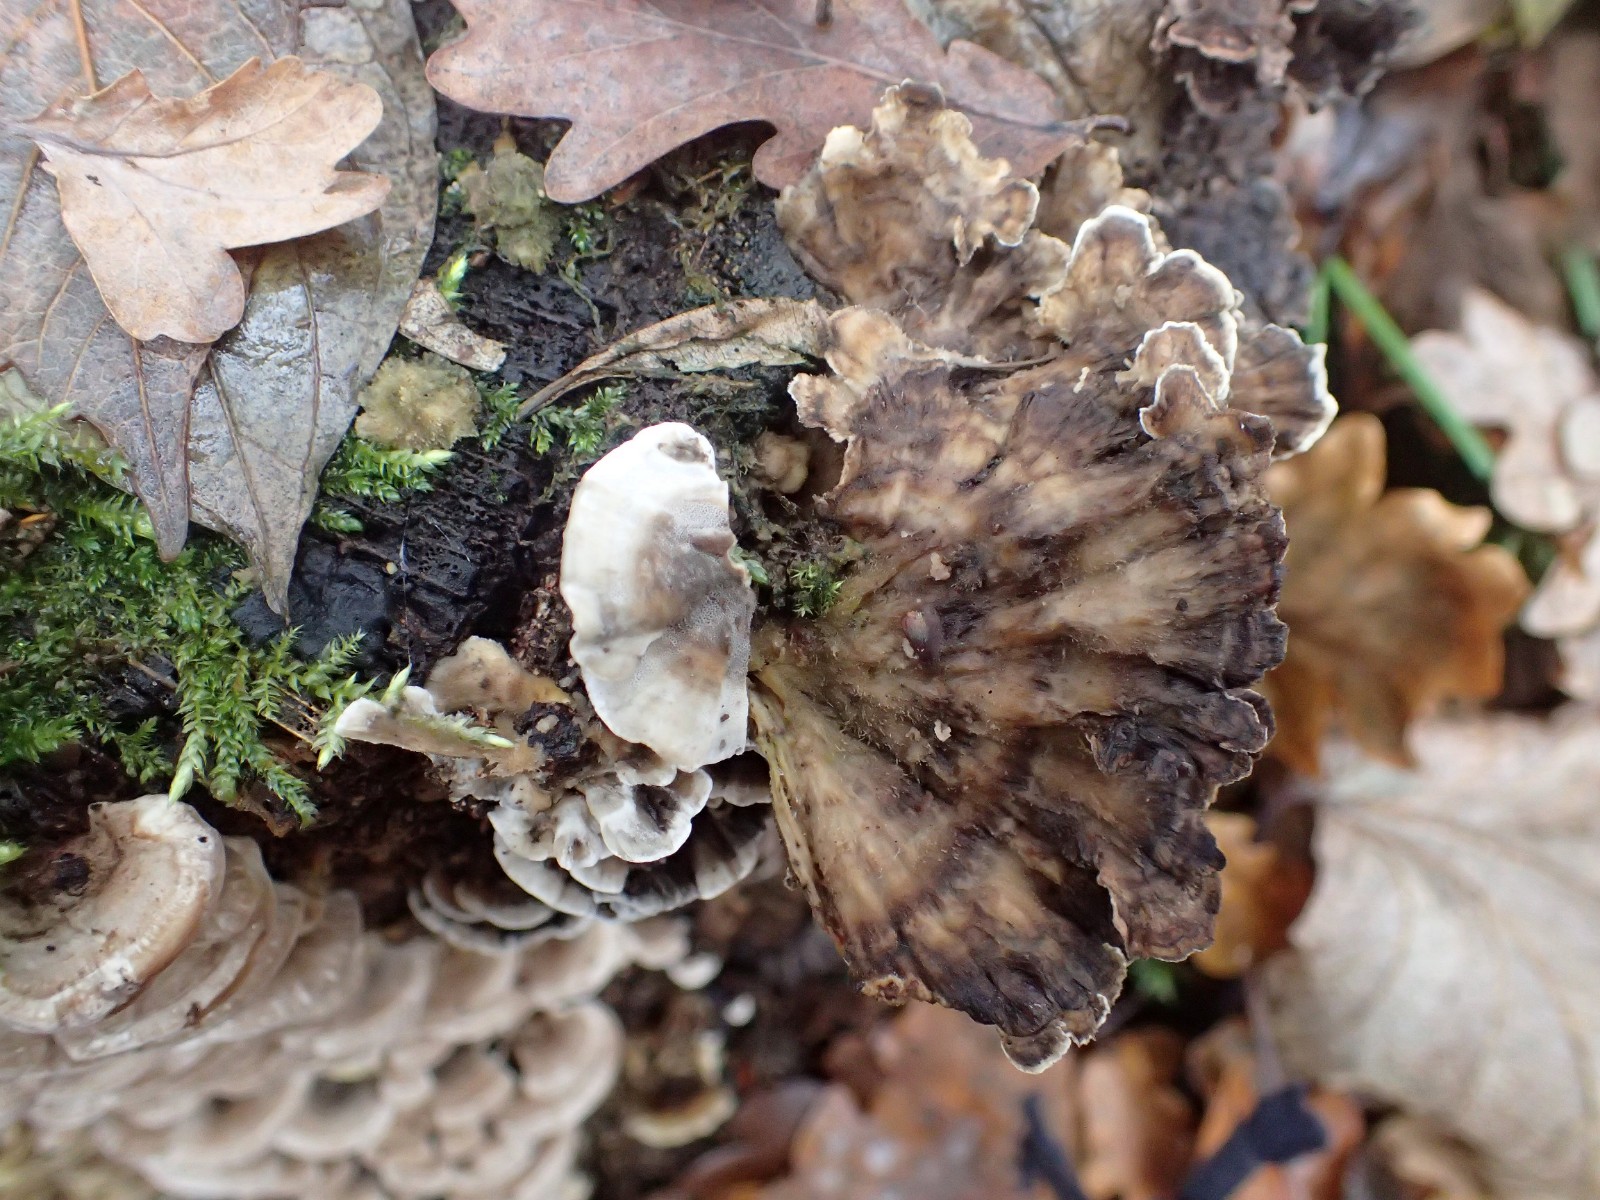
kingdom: Fungi
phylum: Basidiomycota
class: Agaricomycetes
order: Polyporales
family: Phanerochaetaceae
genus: Bjerkandera
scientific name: Bjerkandera adusta
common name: sveden sodporesvamp
